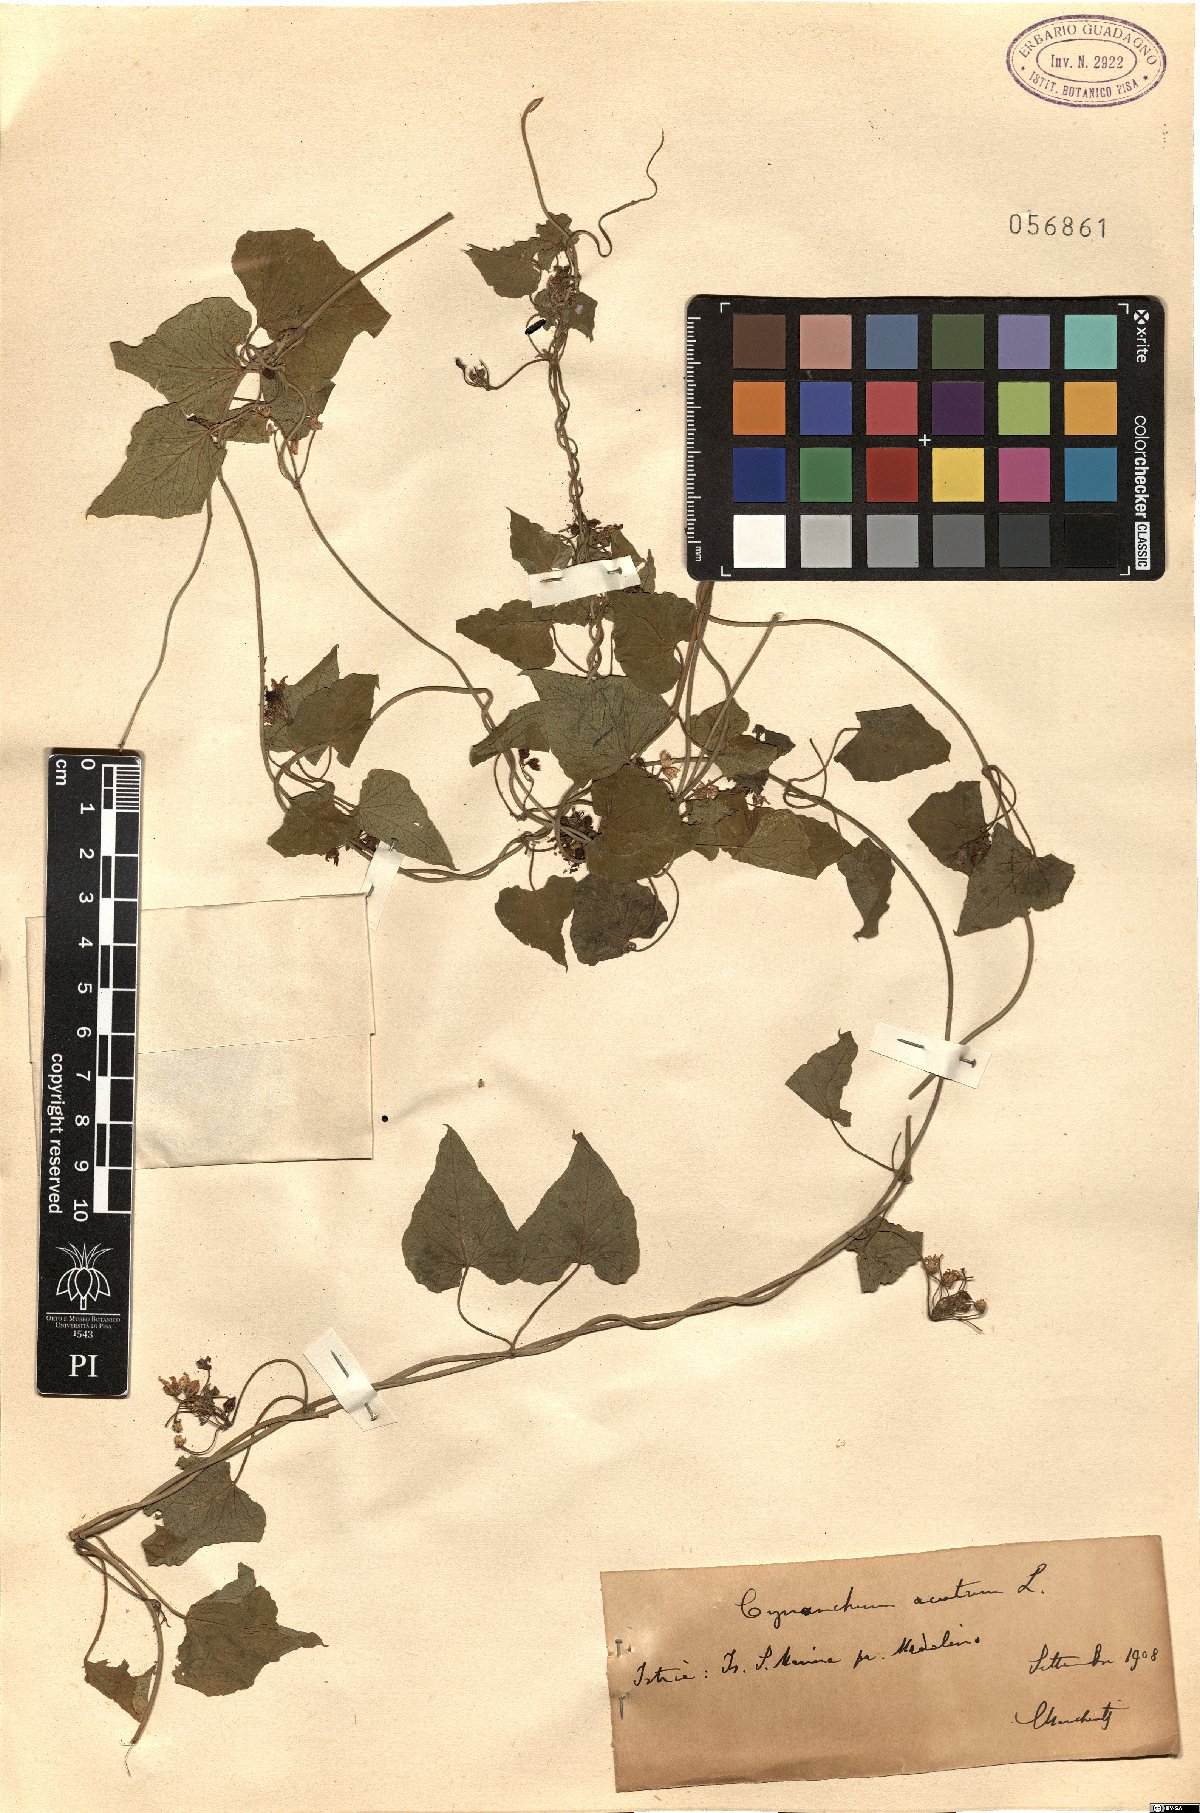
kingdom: Plantae
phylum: Tracheophyta
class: Magnoliopsida
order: Gentianales
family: Apocynaceae
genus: Cynanchum
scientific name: Cynanchum acutum
